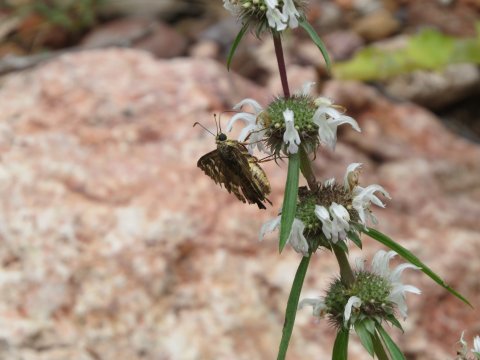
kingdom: Animalia
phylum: Arthropoda
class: Insecta
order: Lepidoptera
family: Hesperiidae
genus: Pyrrhopyge
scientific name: Pyrrhopyge araxes
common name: Dull Firetip
